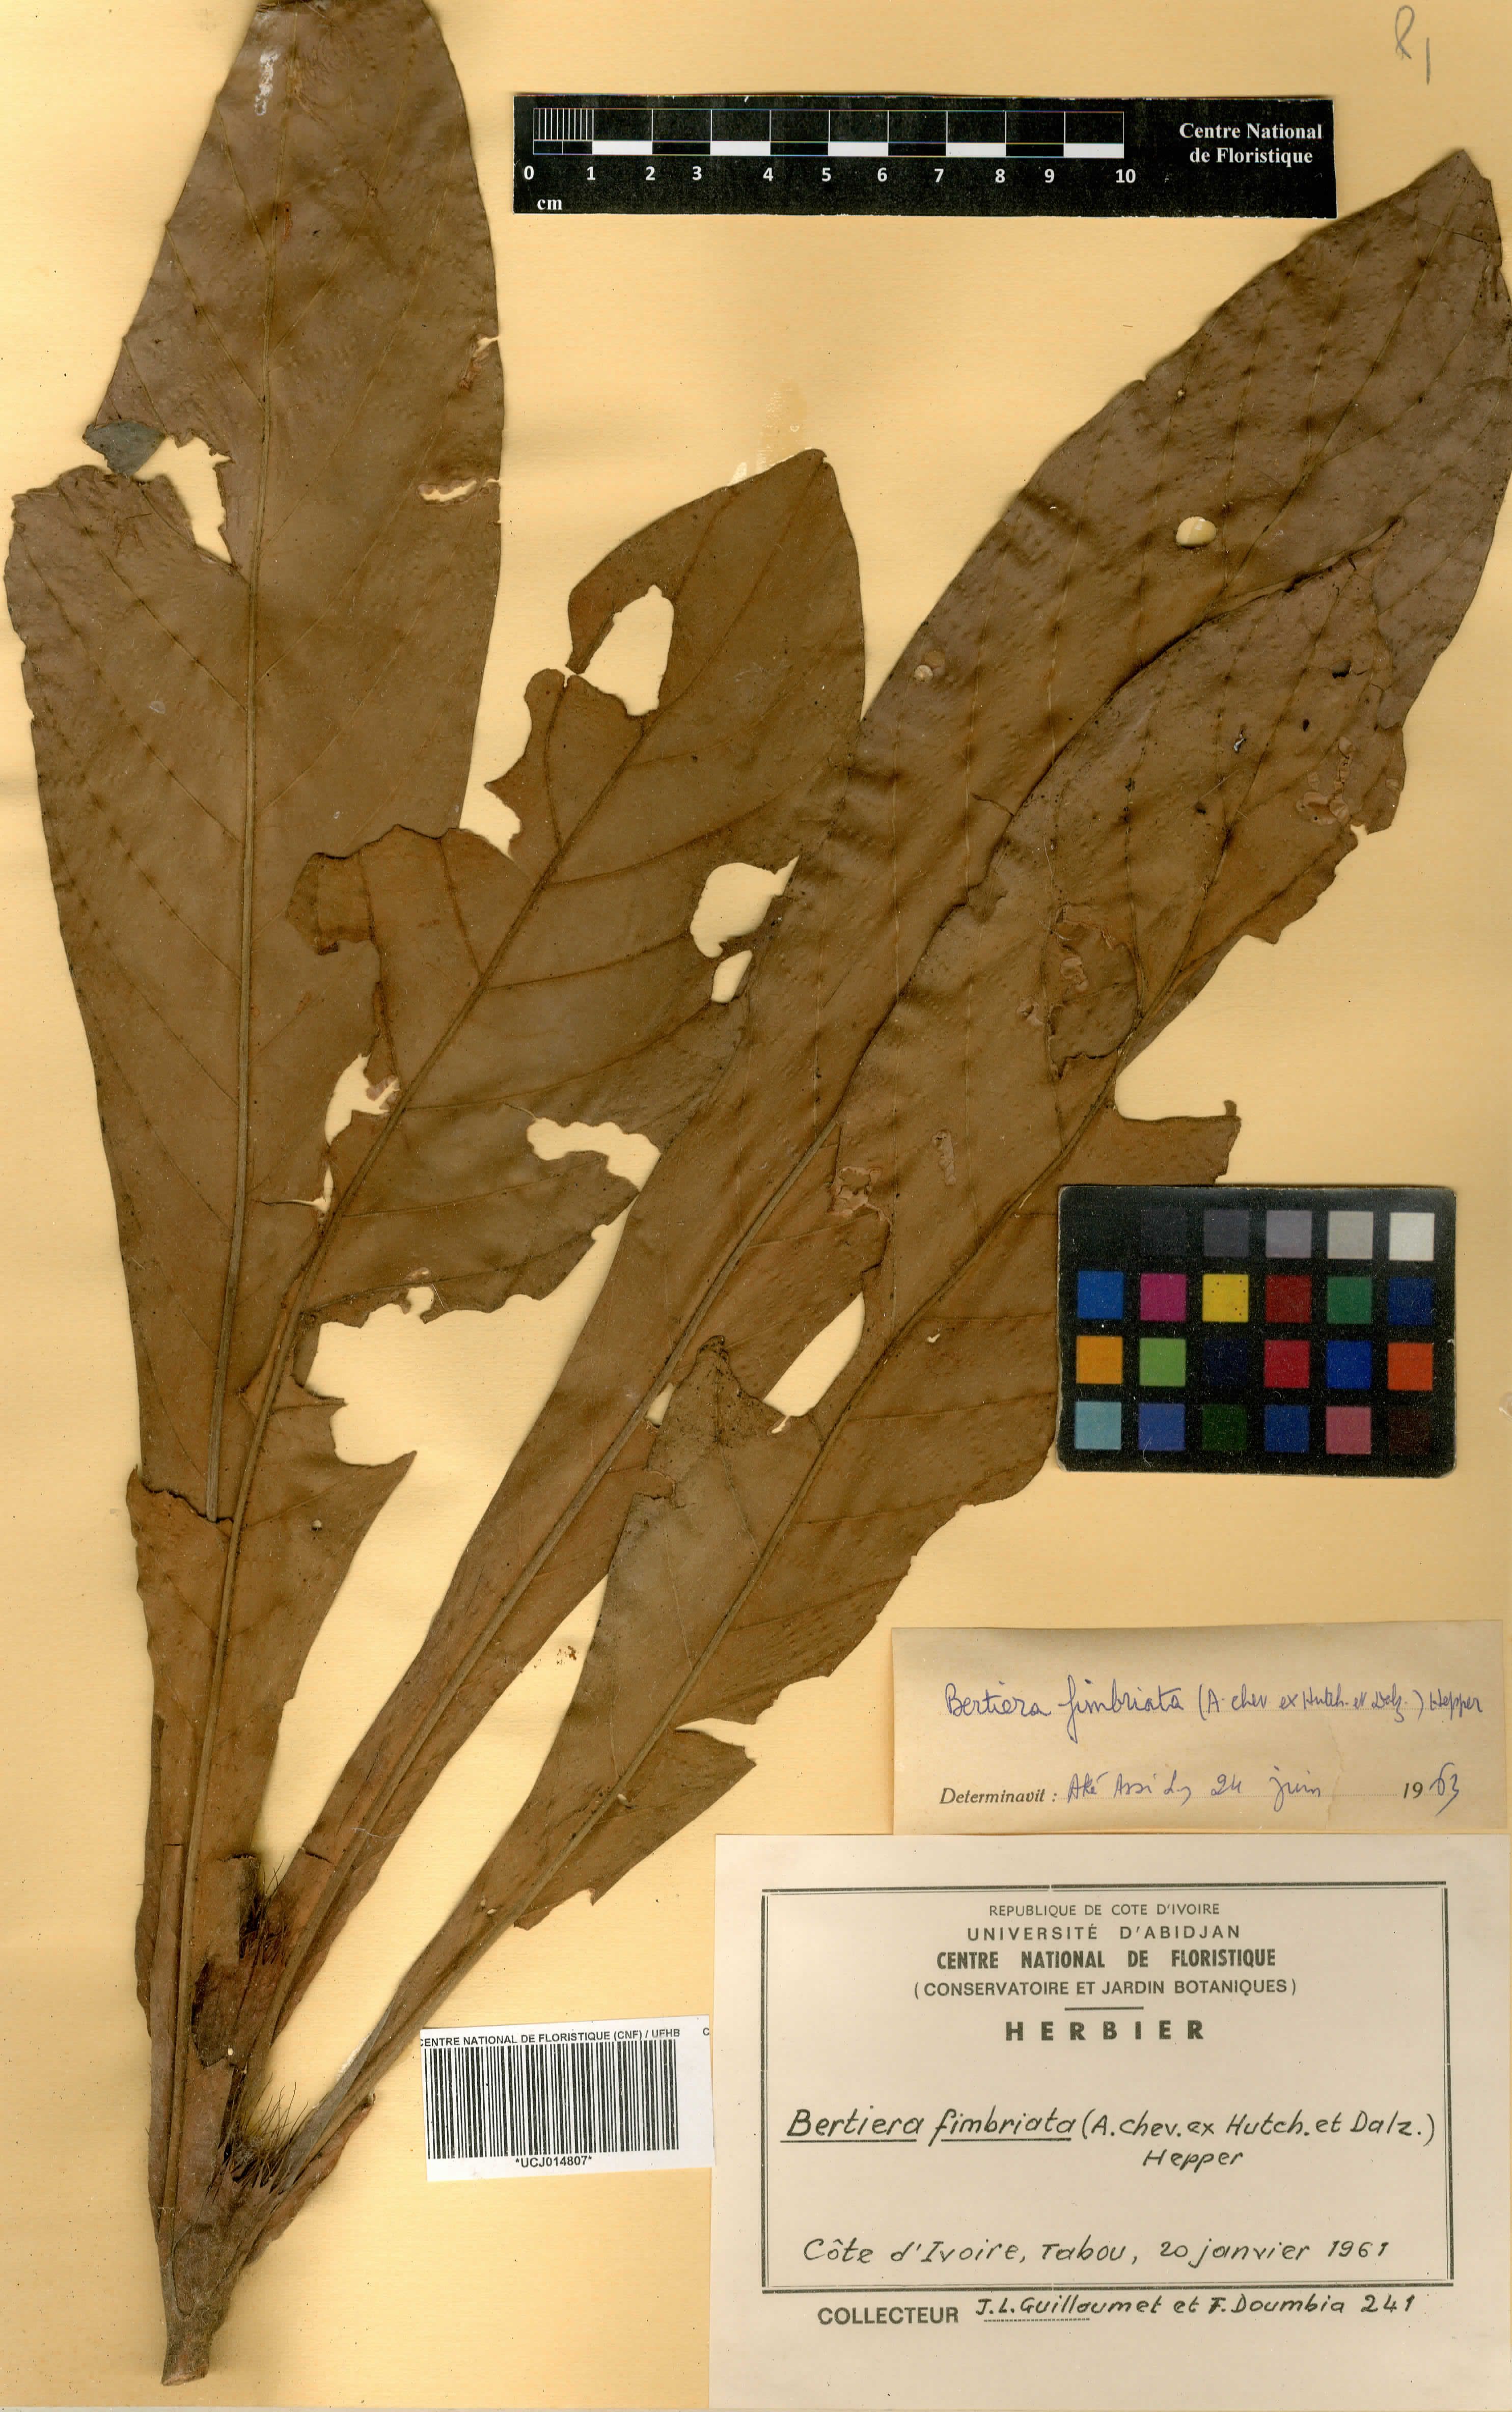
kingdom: Plantae
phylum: Tracheophyta
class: Magnoliopsida
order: Gentianales
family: Rubiaceae
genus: Bertiera
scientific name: Bertiera fimbriata
